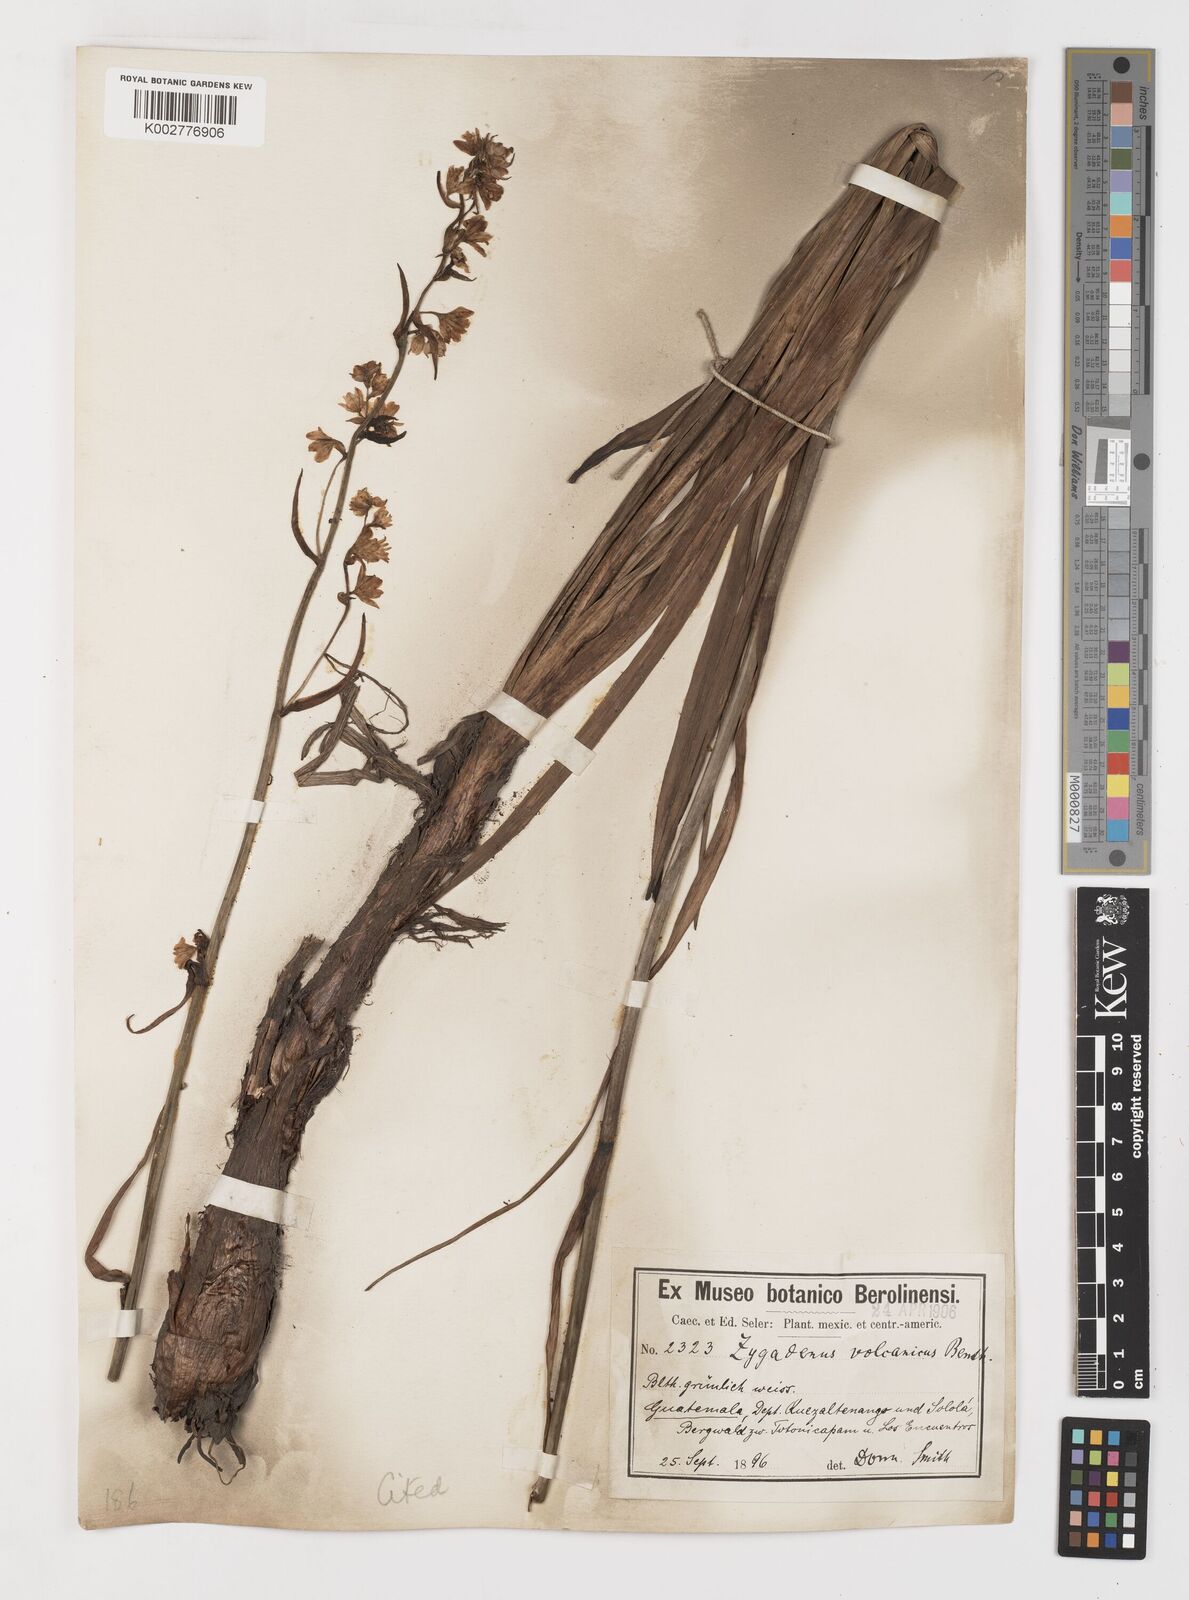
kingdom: Plantae
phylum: Tracheophyta
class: Liliopsida
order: Liliales
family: Melanthiaceae
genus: Anticlea
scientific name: Anticlea volcanica
